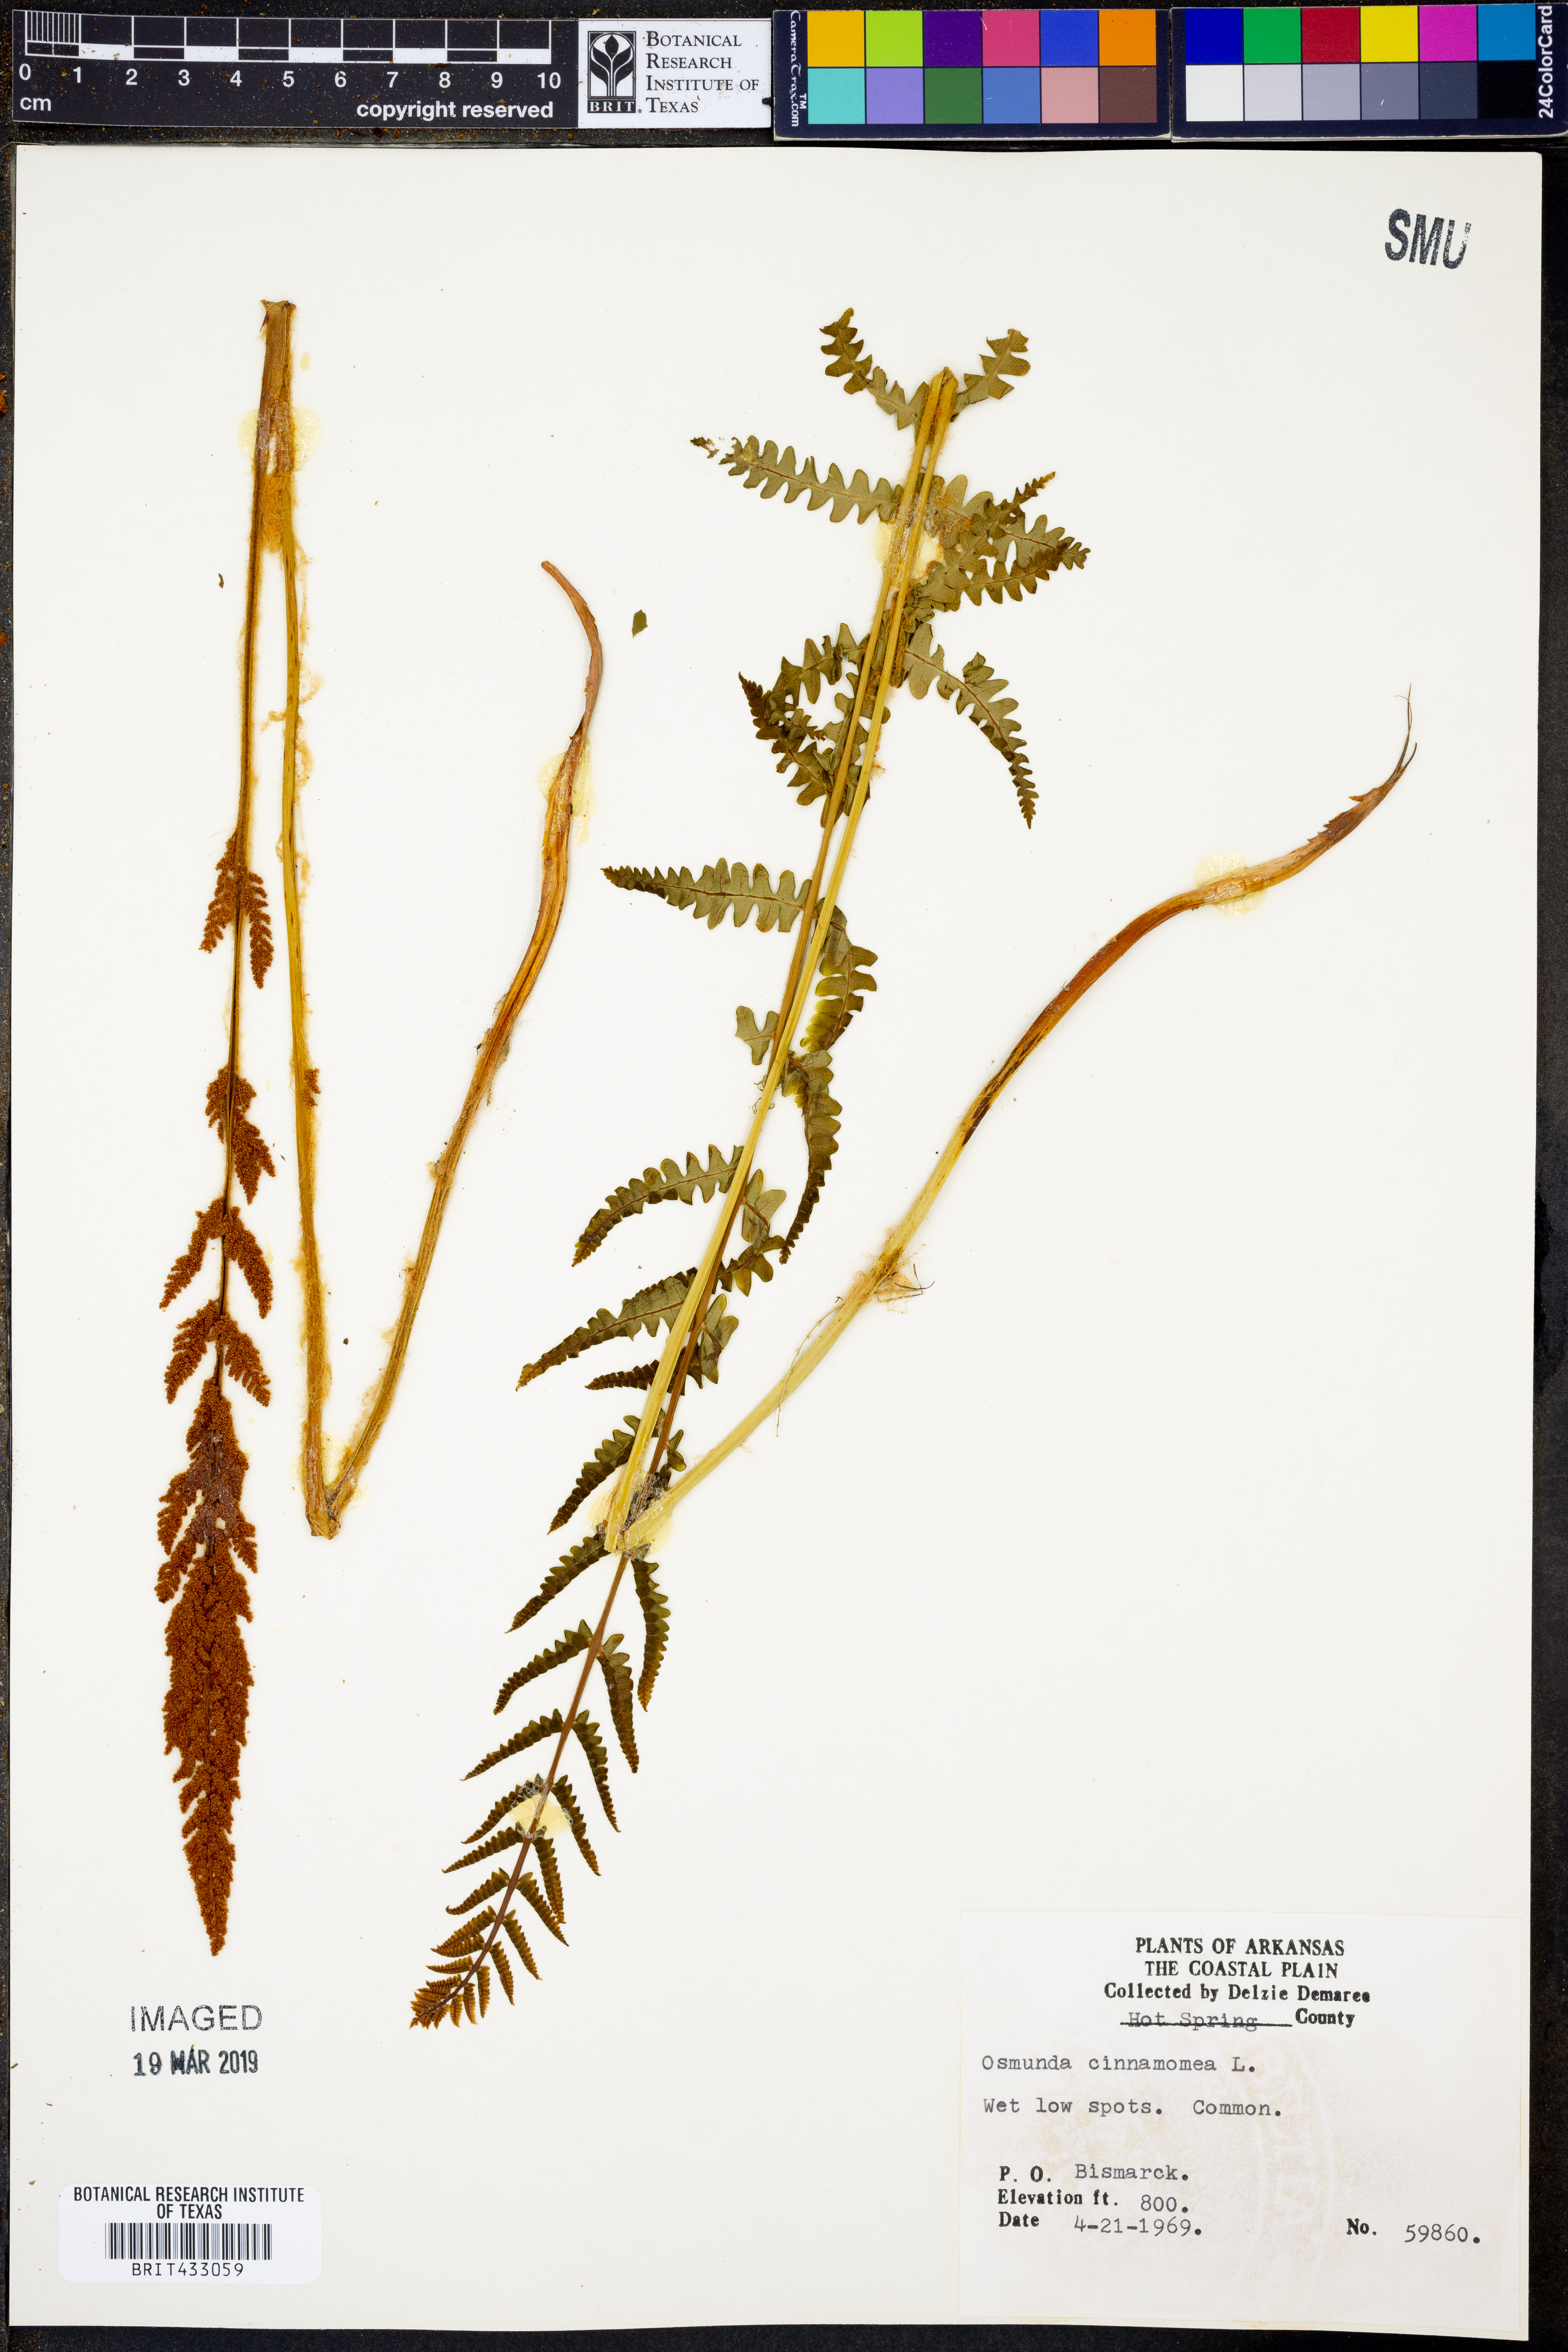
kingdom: Plantae
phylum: Tracheophyta
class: Polypodiopsida
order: Osmundales
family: Osmundaceae
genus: Osmundastrum
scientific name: Osmundastrum cinnamomeum
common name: Cinnamon fern
